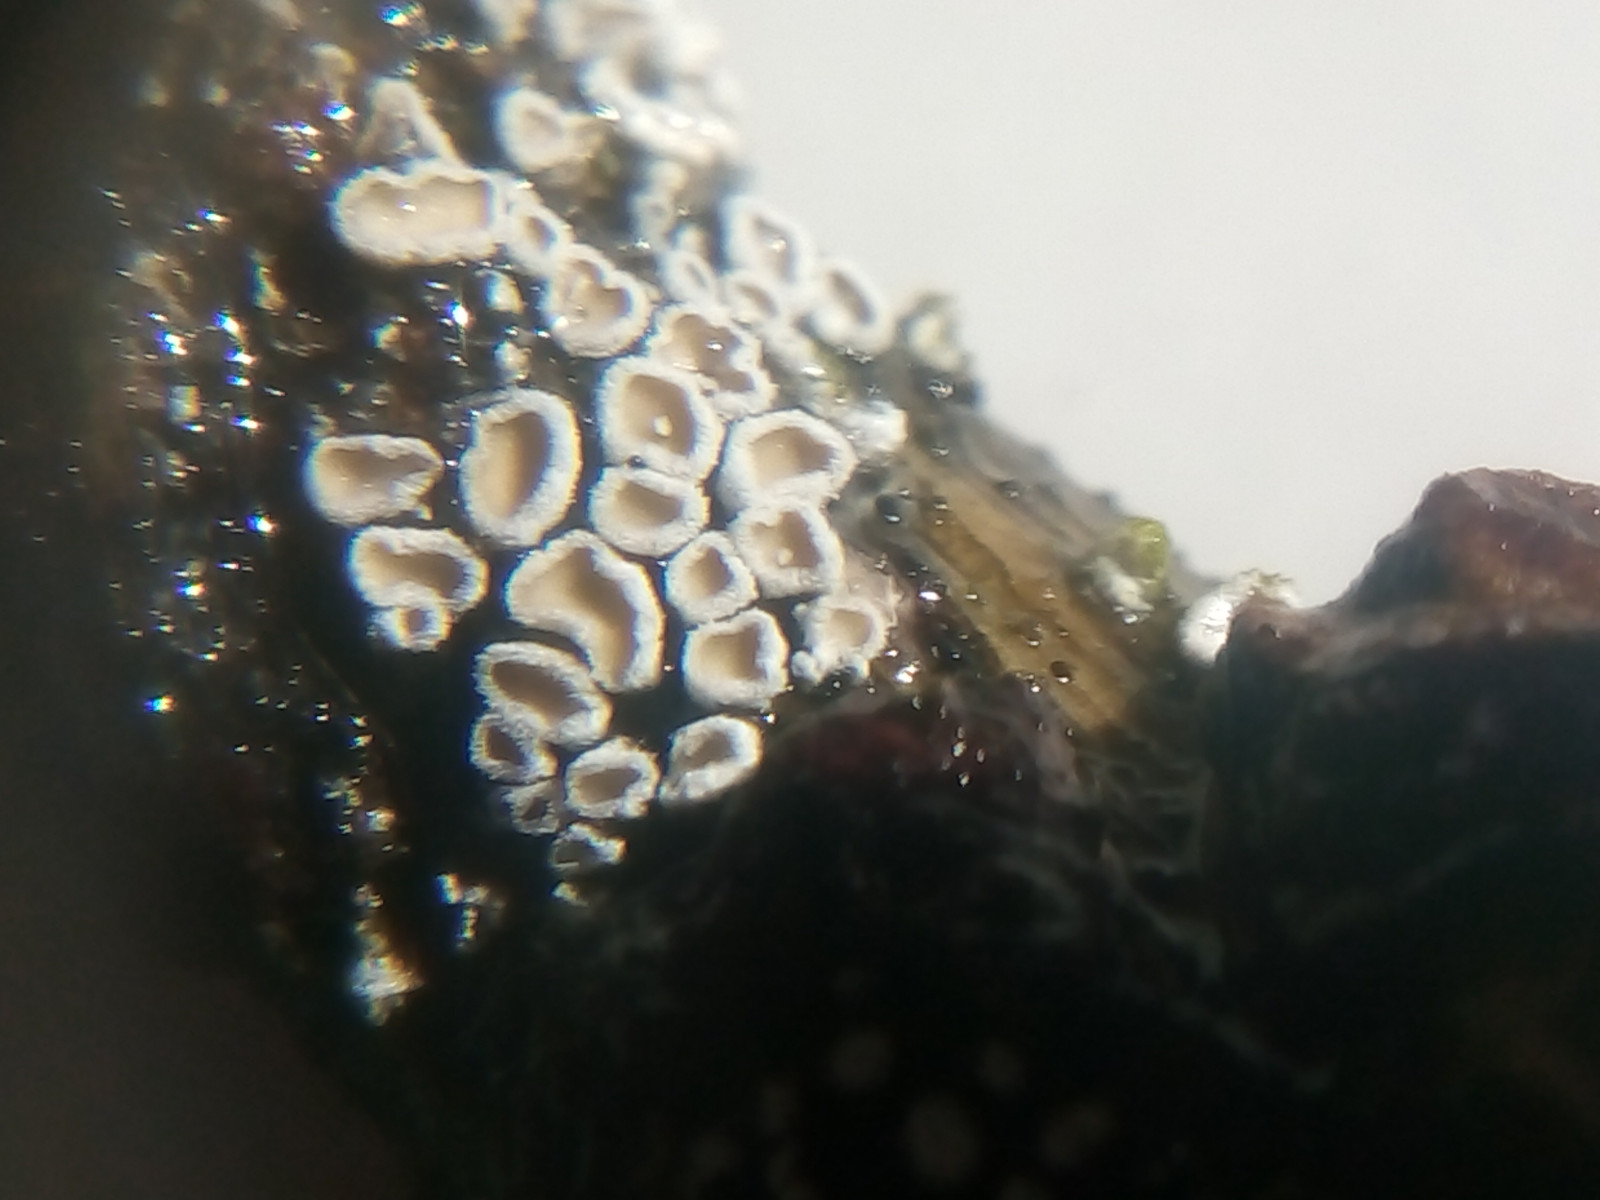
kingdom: Fungi
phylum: Basidiomycota
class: Agaricomycetes
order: Agaricales
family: Niaceae
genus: Lachnella
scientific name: Lachnella alboviolascens
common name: grå frynserede
